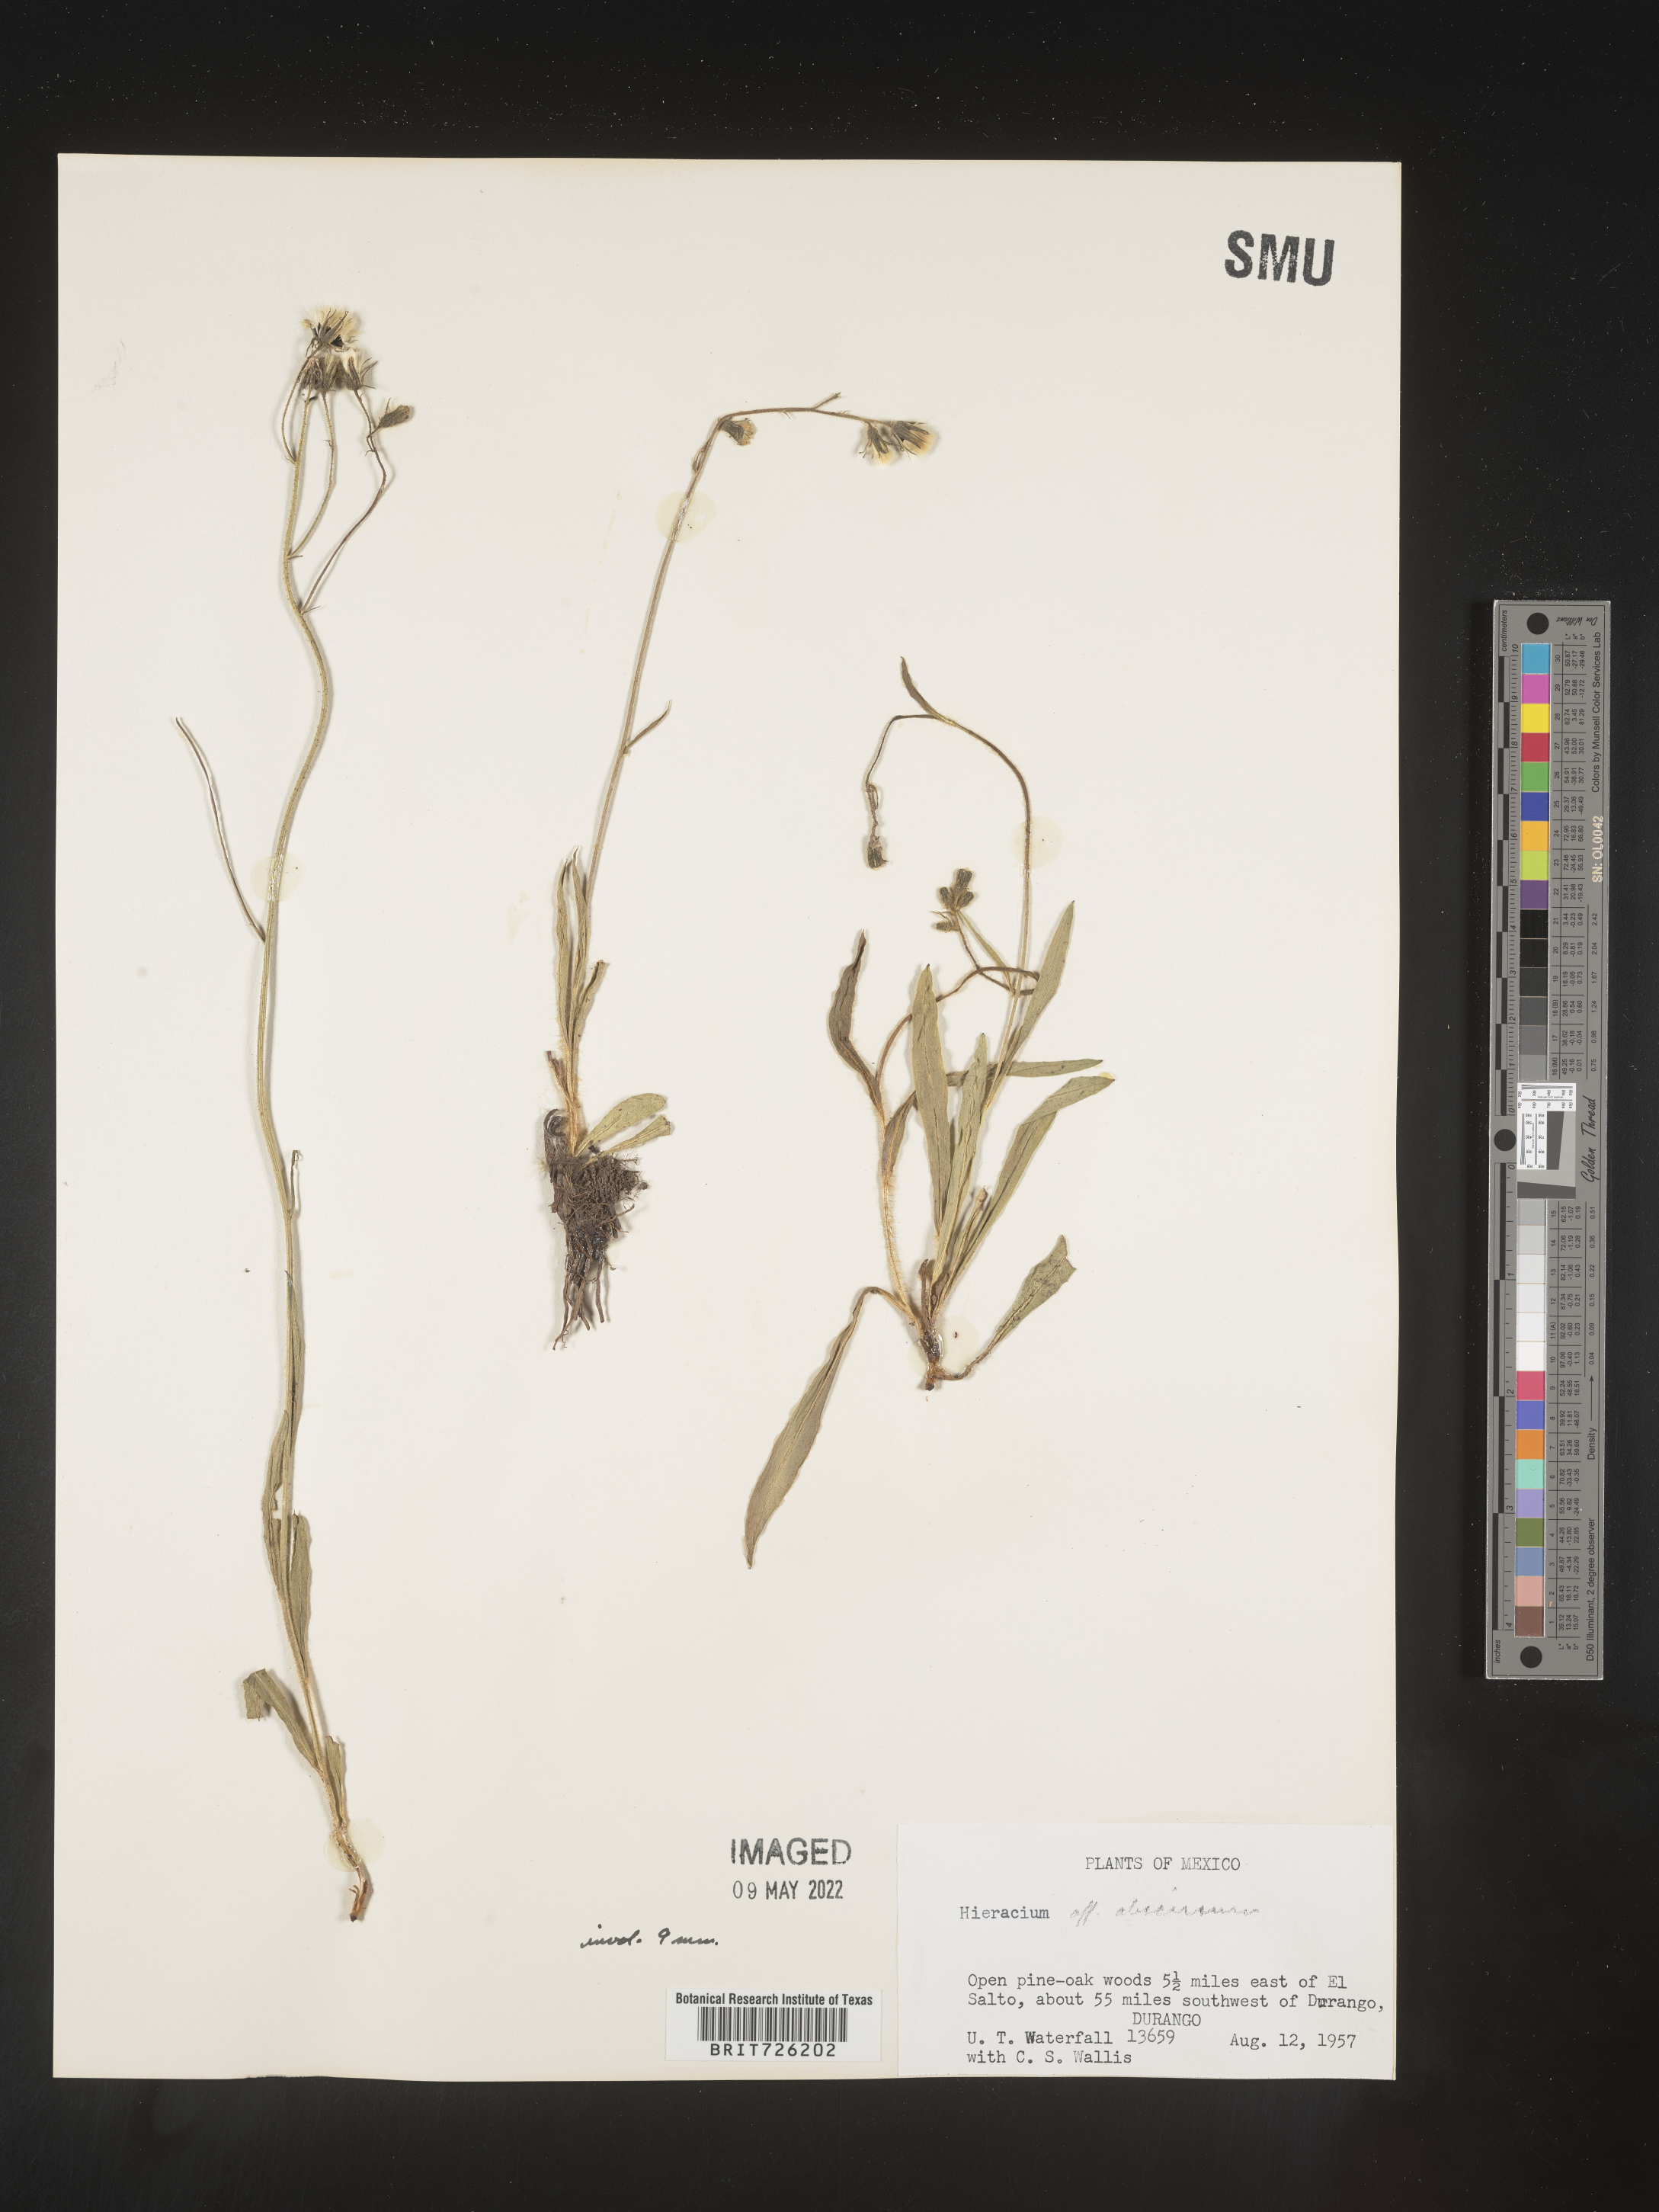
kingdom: Plantae
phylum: Tracheophyta
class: Magnoliopsida
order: Asterales
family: Asteraceae
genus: Hieracium
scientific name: Hieracium
